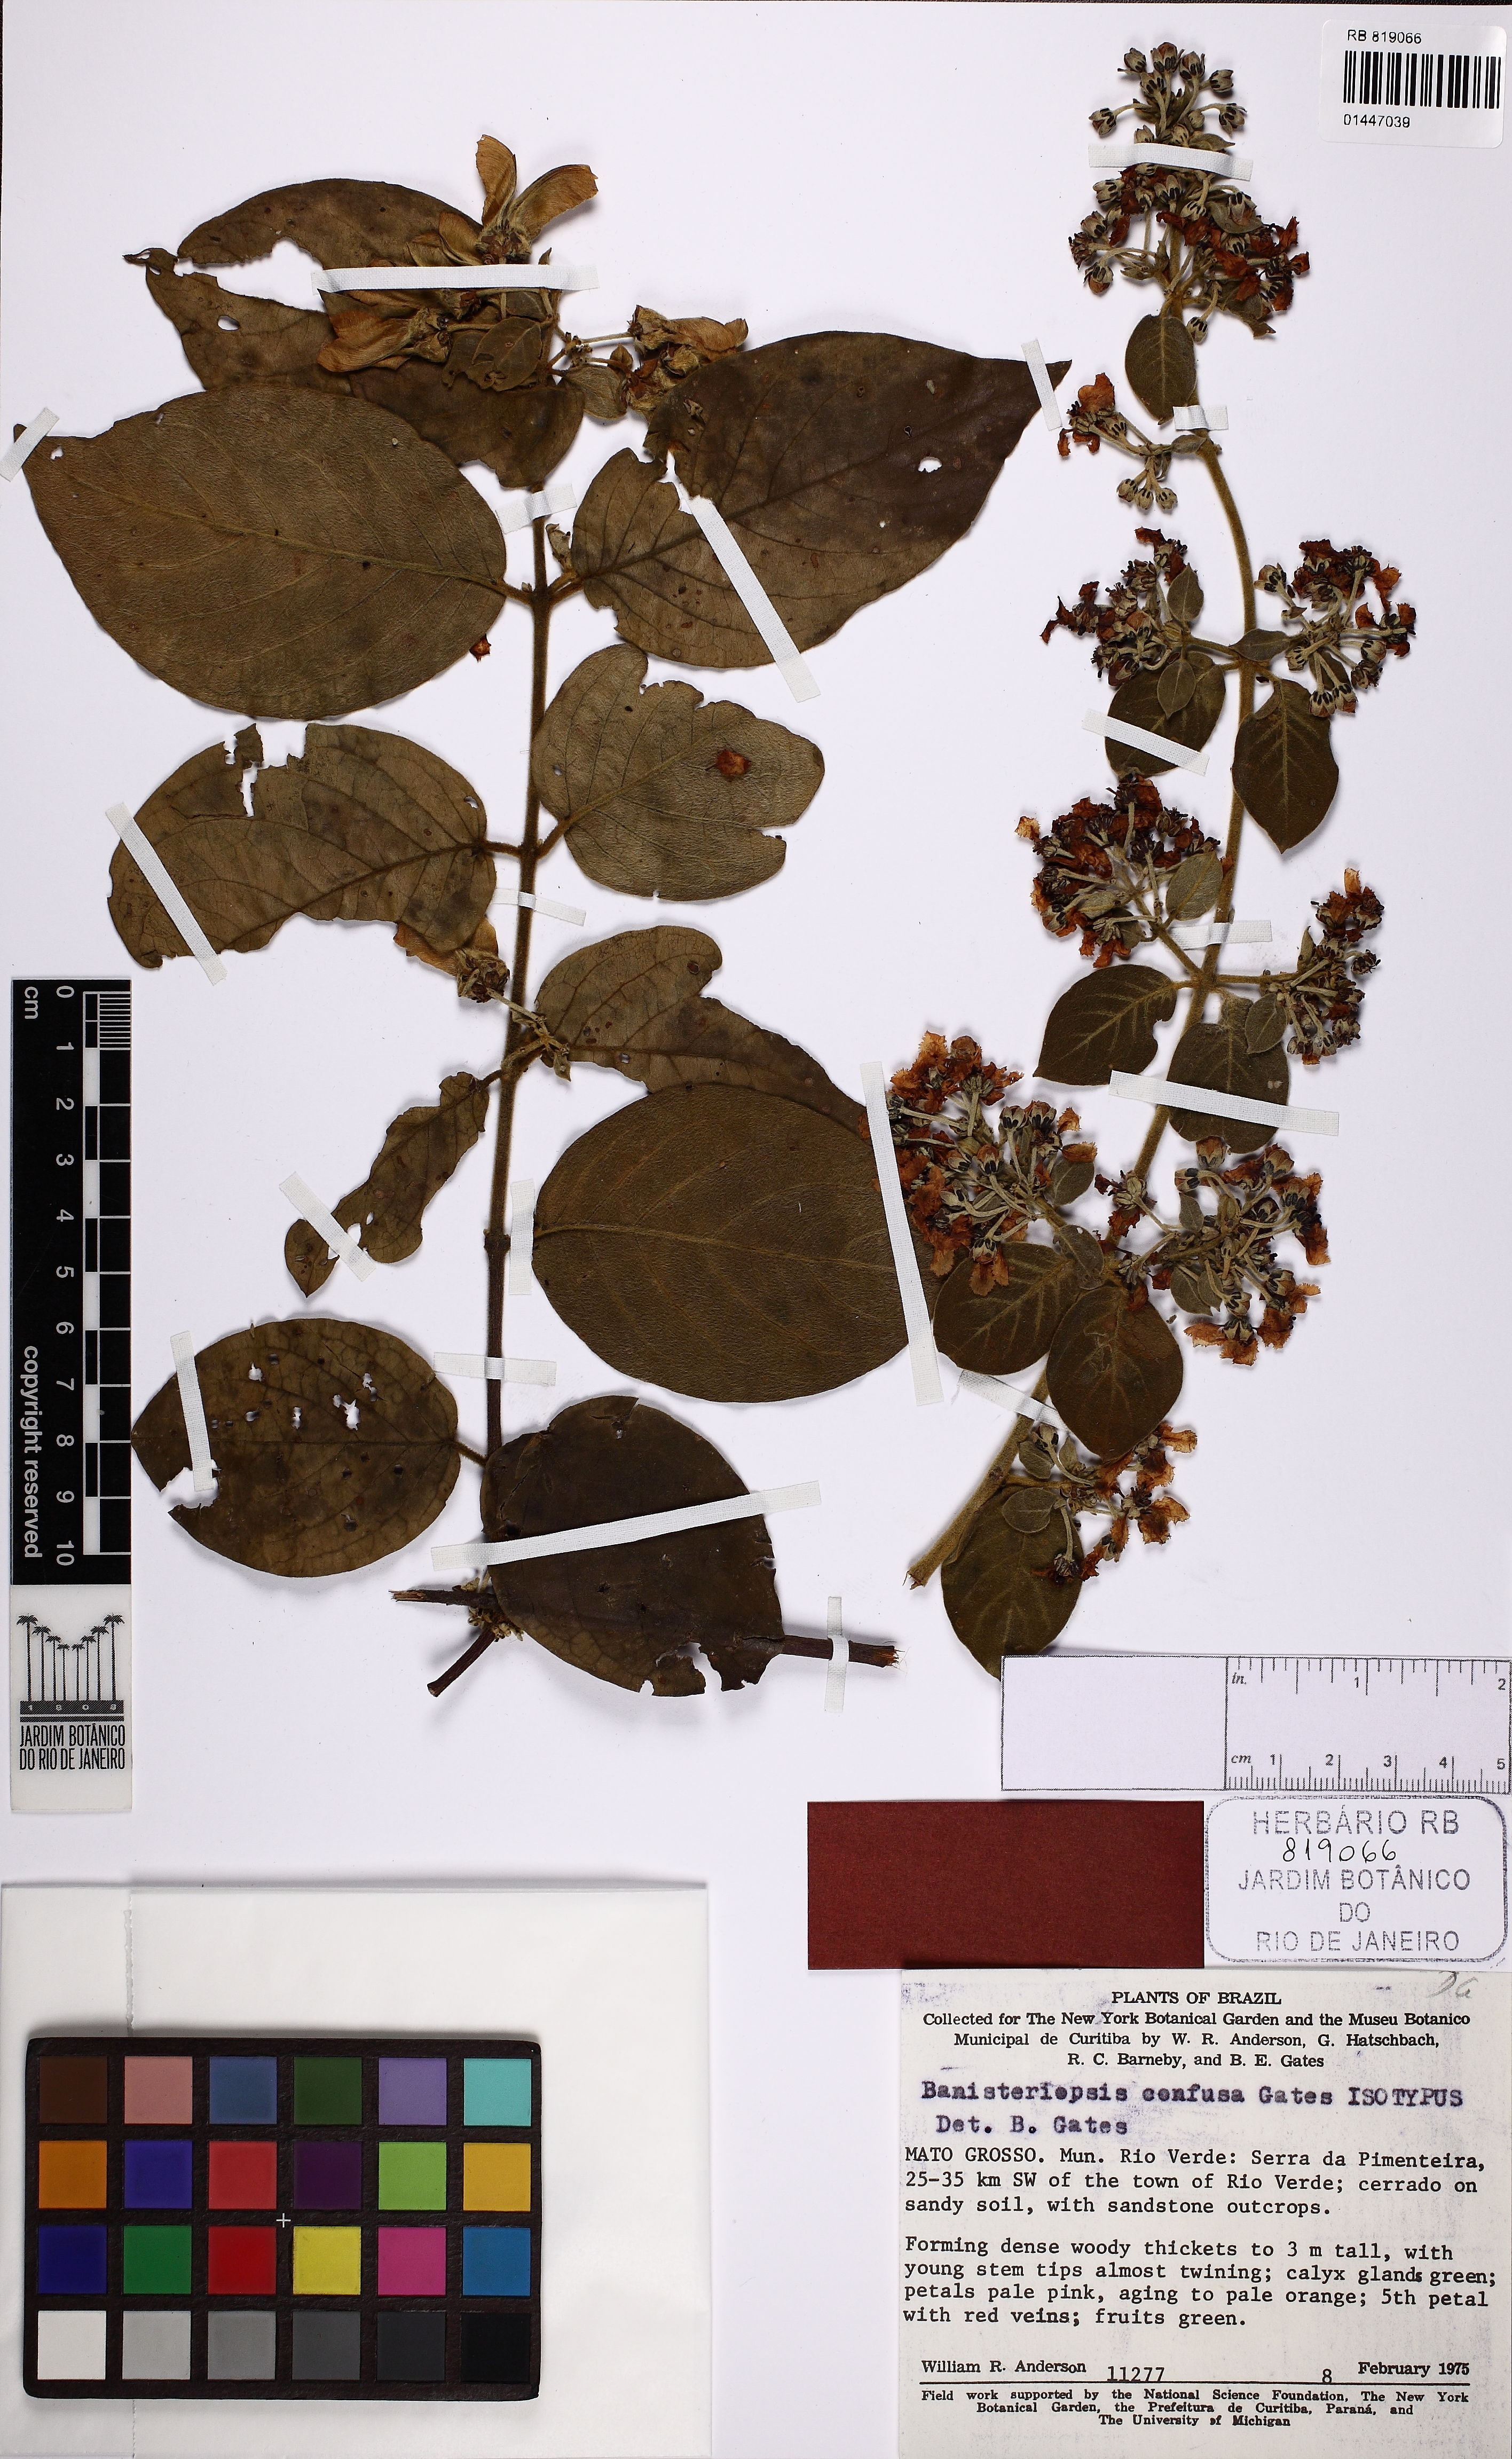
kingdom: Plantae
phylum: Tracheophyta
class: Magnoliopsida
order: Malpighiales
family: Malpighiaceae
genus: Banisteriopsis
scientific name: Banisteriopsis confusa
